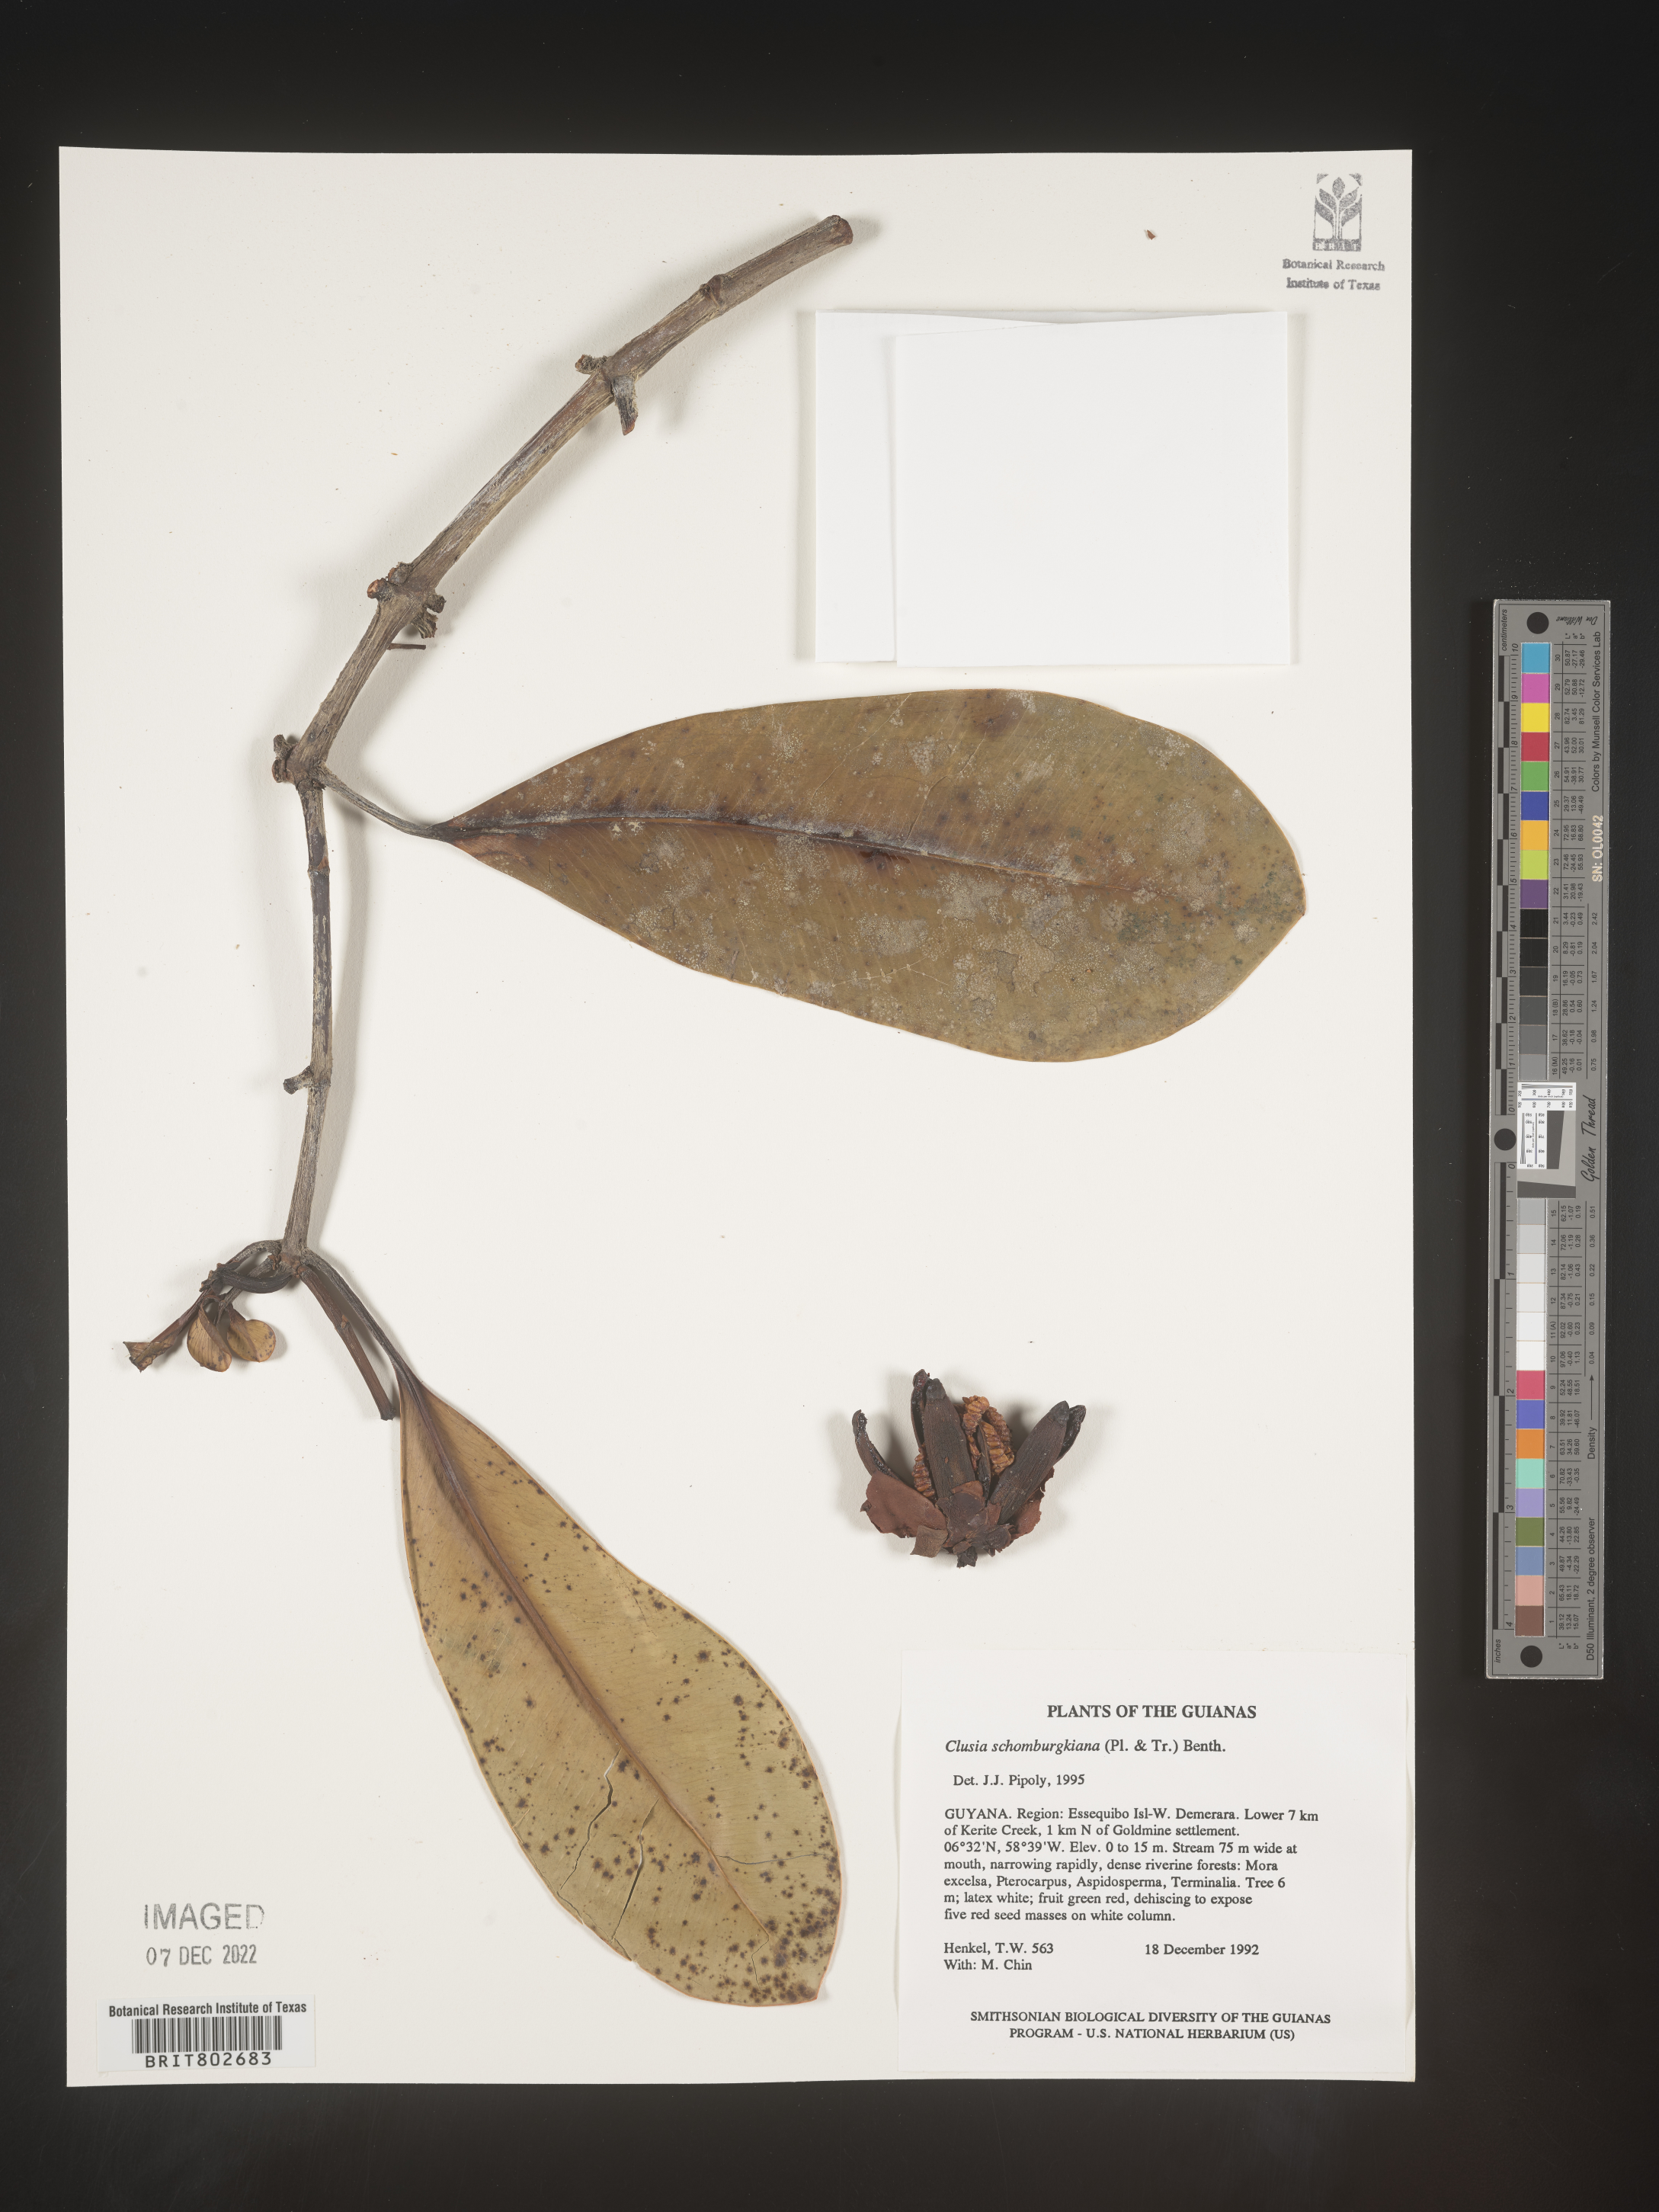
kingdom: Plantae
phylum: Tracheophyta
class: Magnoliopsida
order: Malpighiales
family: Clusiaceae
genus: Clusia
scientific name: Clusia schomburgkiana
